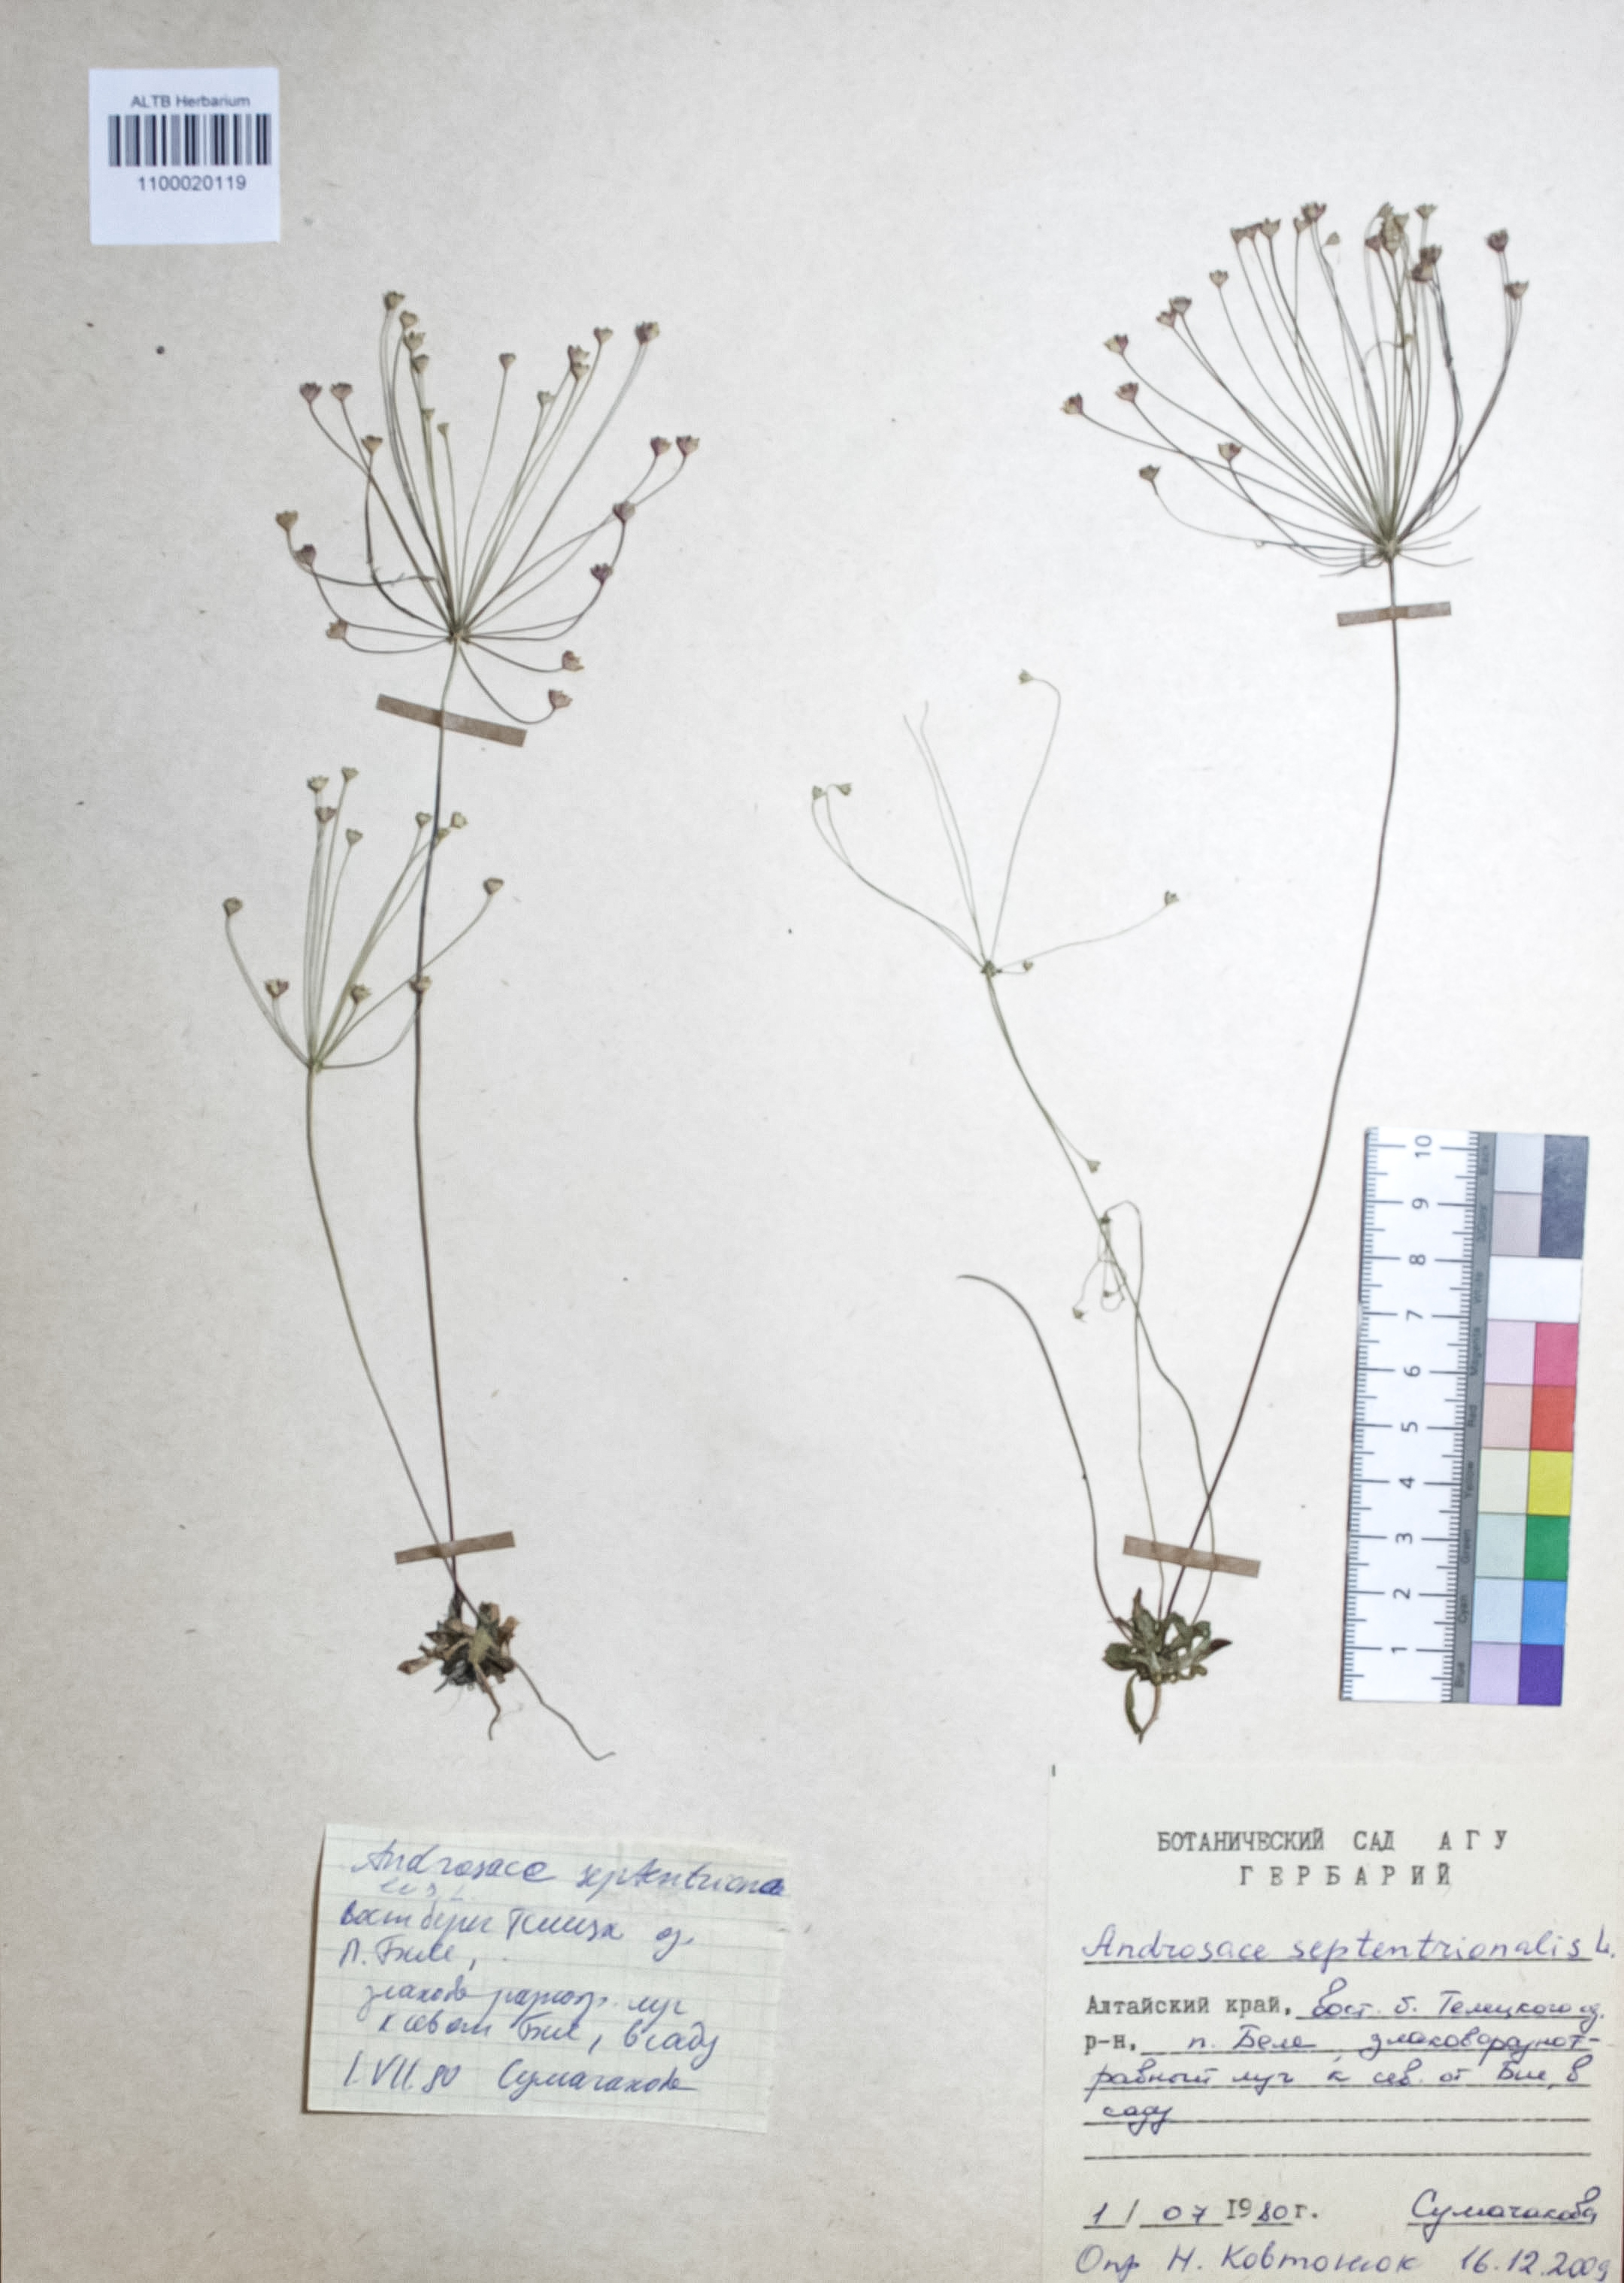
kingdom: Plantae
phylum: Tracheophyta
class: Magnoliopsida
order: Ericales
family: Primulaceae
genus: Androsace
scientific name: Androsace septentrionalis
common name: Hairy northern fairy-candelabra
